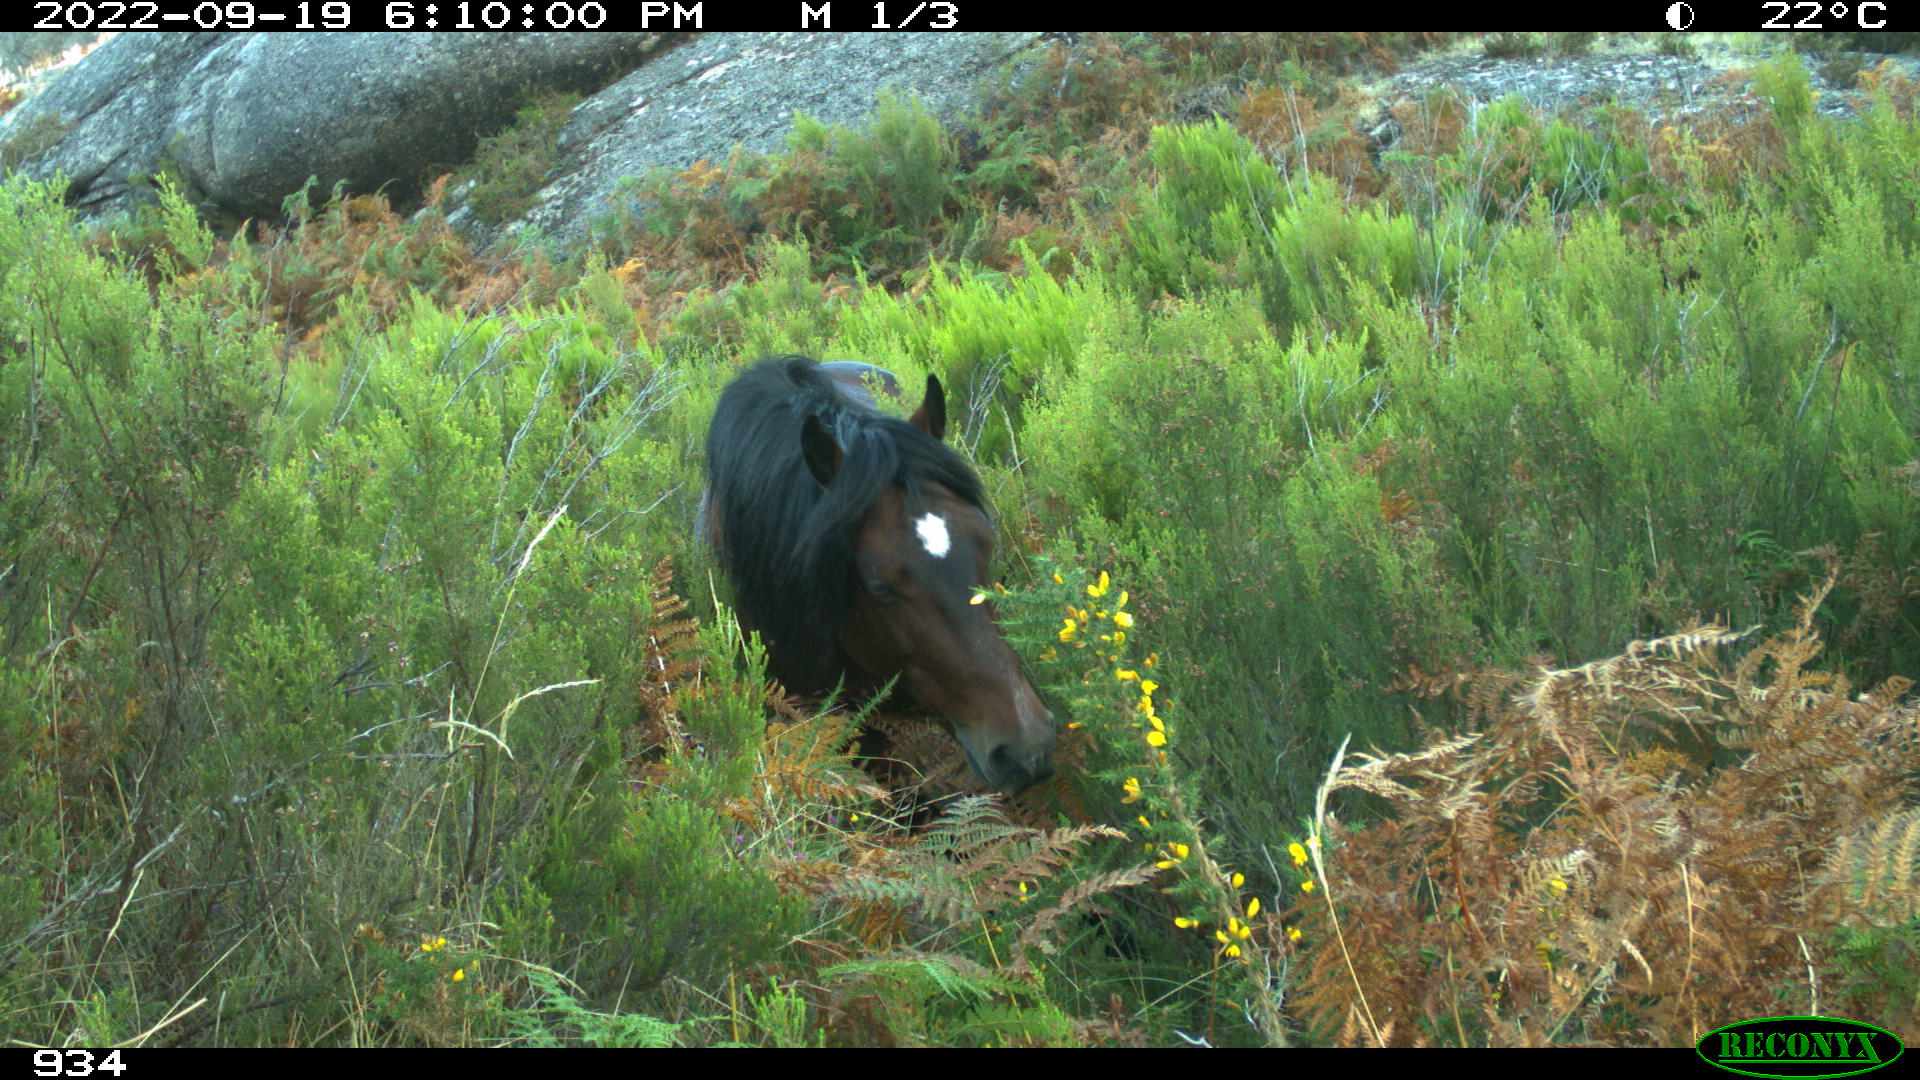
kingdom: Animalia
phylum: Chordata
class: Mammalia
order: Perissodactyla
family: Equidae
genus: Equus
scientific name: Equus caballus
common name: Horse
